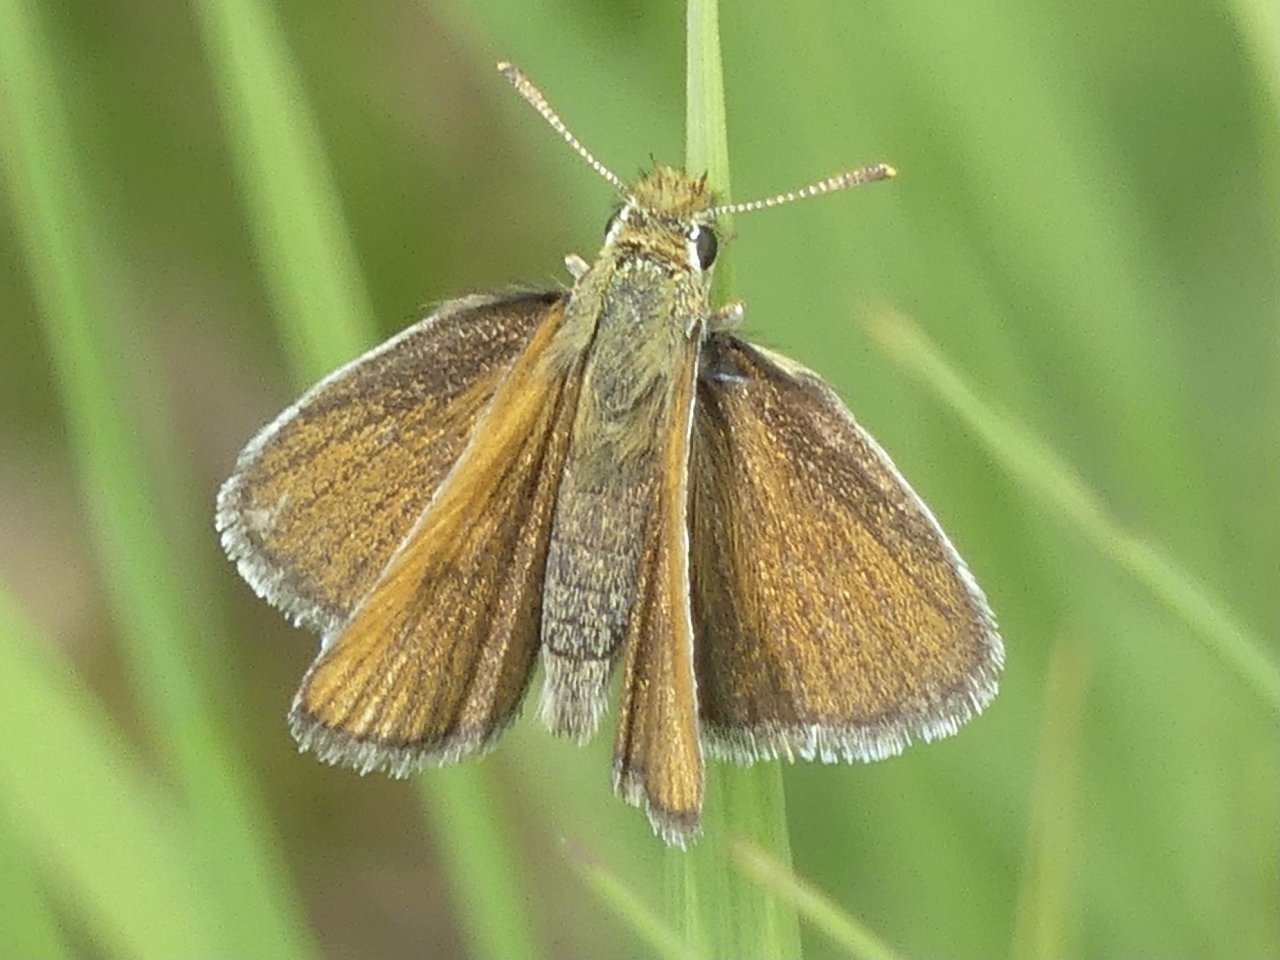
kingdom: Animalia
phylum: Arthropoda
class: Insecta
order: Lepidoptera
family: Hesperiidae
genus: Thymelicus
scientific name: Thymelicus lineola
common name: European Skipper
